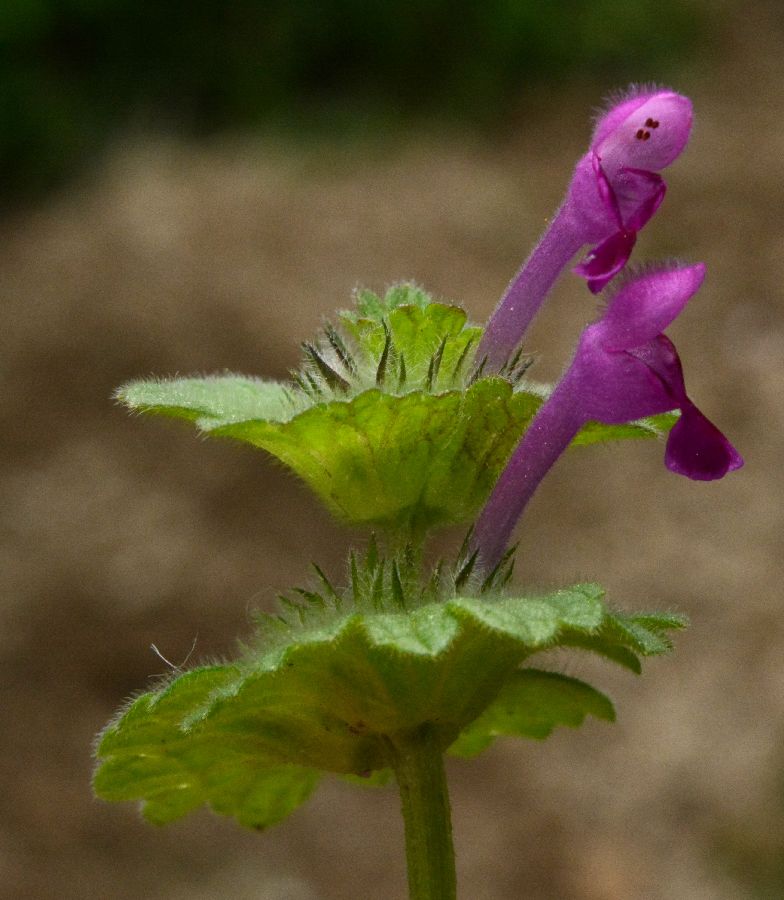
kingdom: Plantae
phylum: Tracheophyta
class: Magnoliopsida
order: Lamiales
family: Lamiaceae
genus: Lamium
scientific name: Lamium amplexicaule
